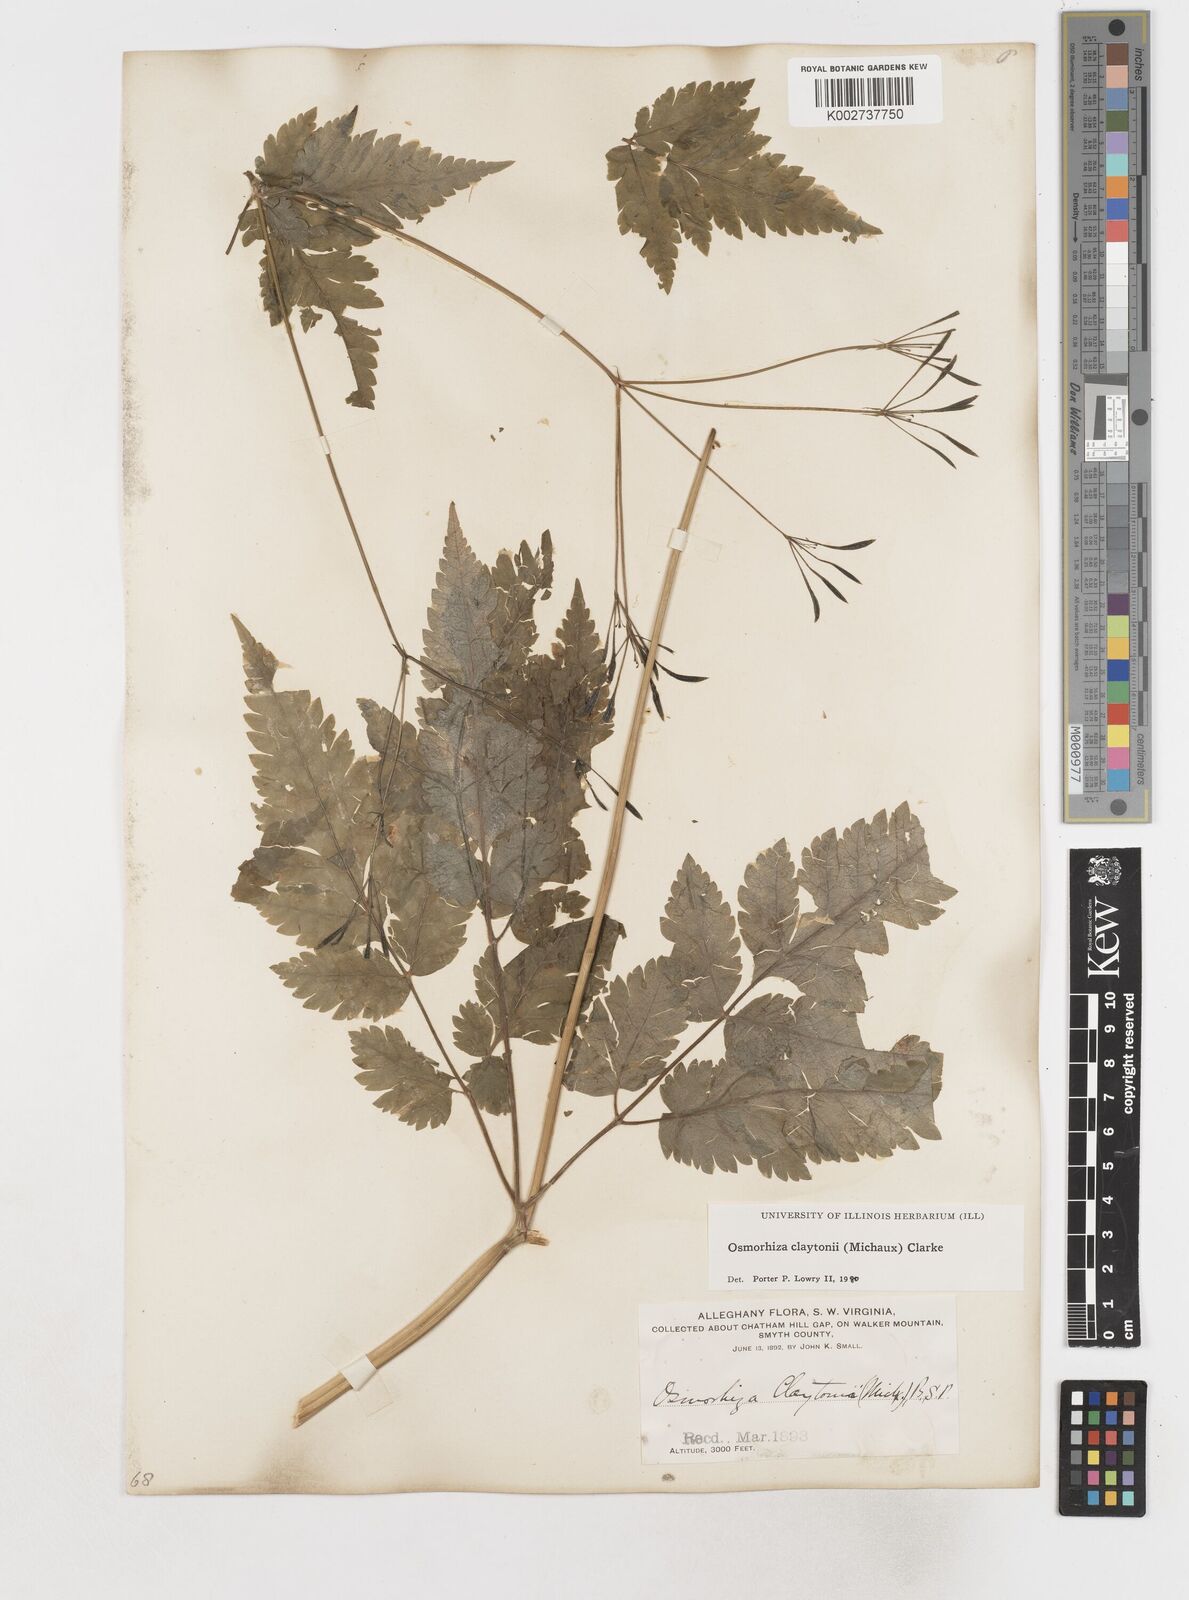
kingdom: Plantae
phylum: Tracheophyta
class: Magnoliopsida
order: Apiales
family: Apiaceae
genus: Osmorhiza
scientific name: Osmorhiza claytonii
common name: Hairy sweet cicely
